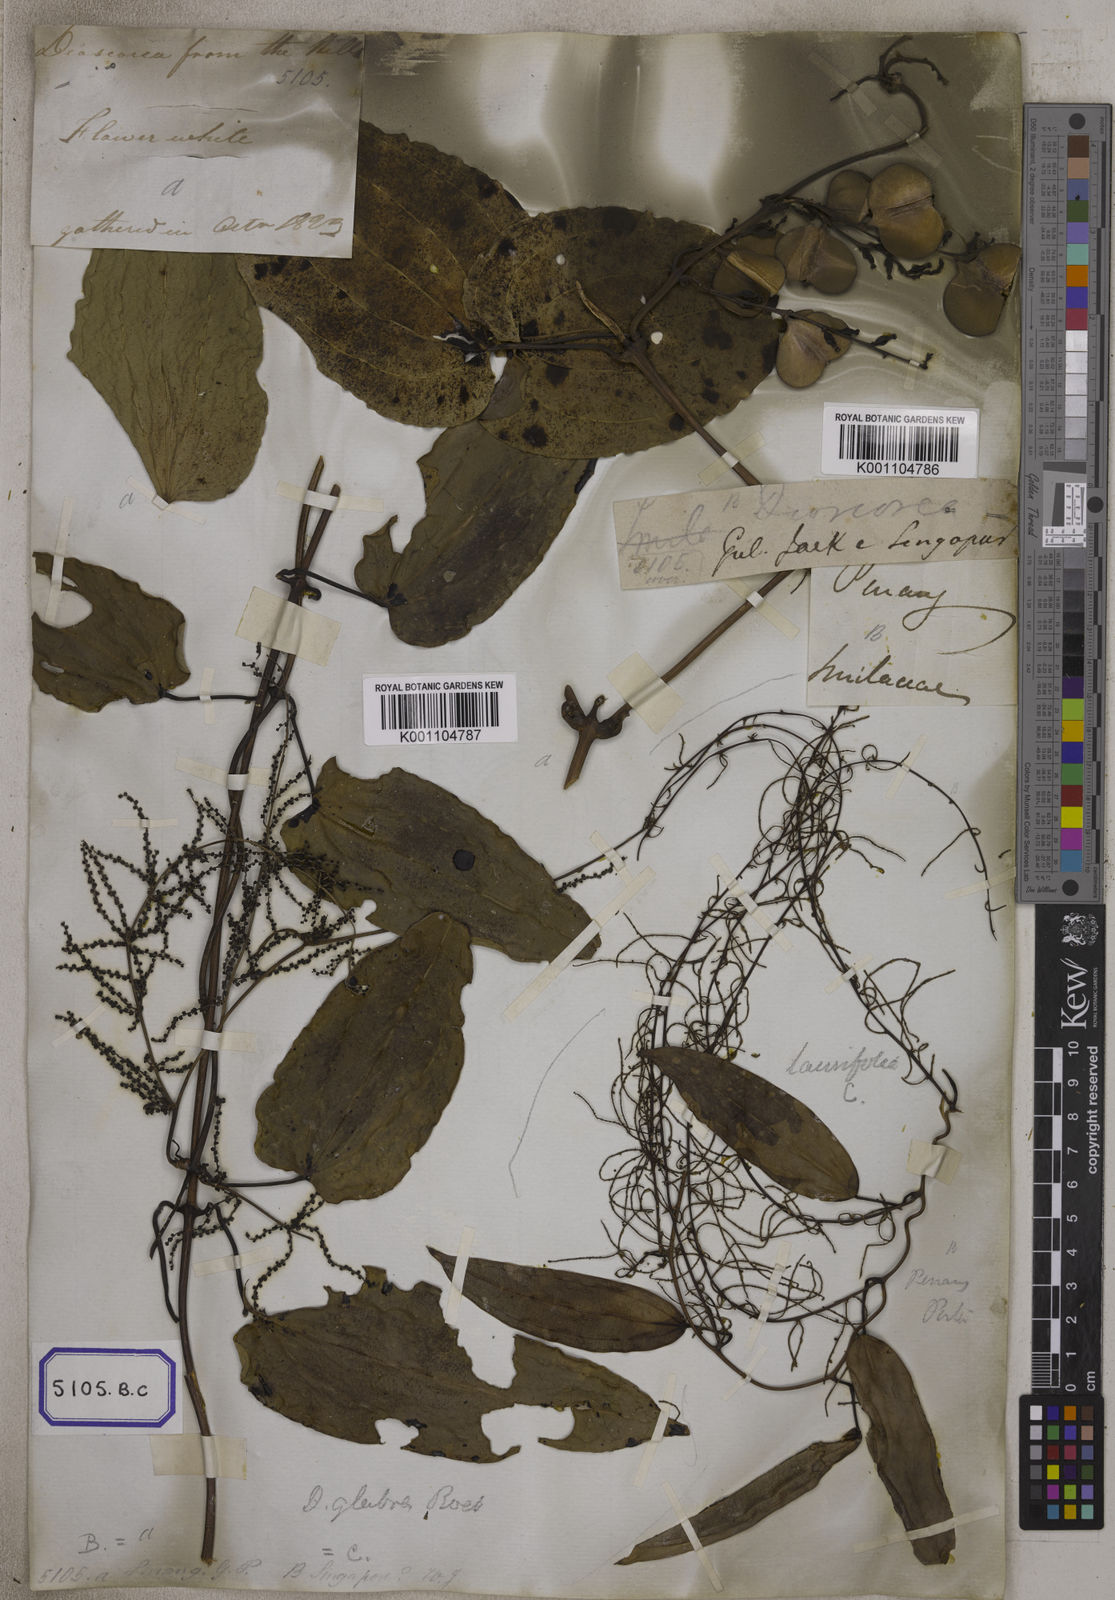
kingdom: Plantae
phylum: Tracheophyta
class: Liliopsida
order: Dioscoreales
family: Dioscoreaceae
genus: Dioscorea
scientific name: Dioscorea glabra
